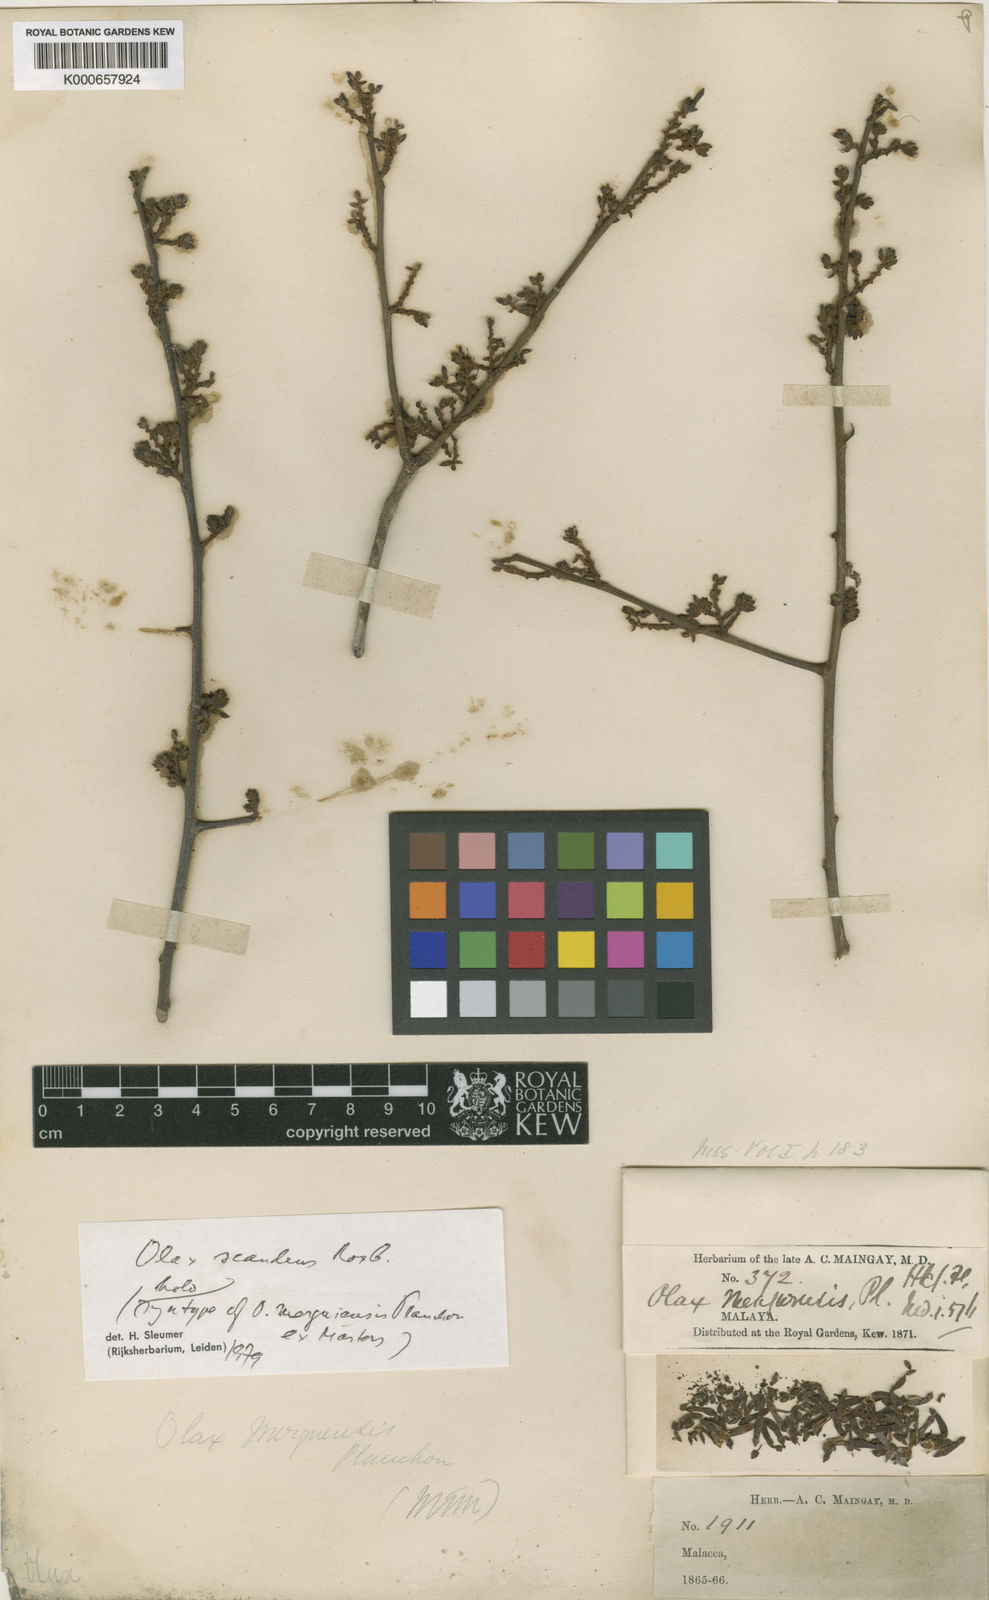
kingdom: Plantae
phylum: Tracheophyta
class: Magnoliopsida
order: Santalales
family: Olacaceae
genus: Olax
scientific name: Olax psittacorum
